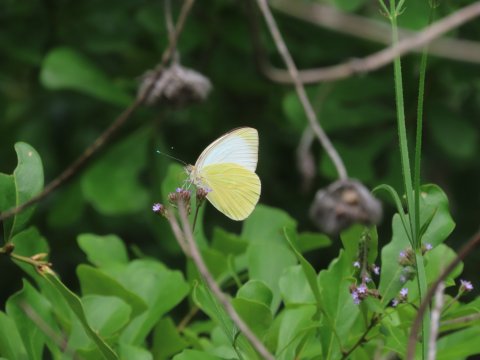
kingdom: Animalia
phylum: Arthropoda
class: Insecta
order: Lepidoptera
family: Pieridae
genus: Ascia
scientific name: Ascia monuste
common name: Great Southern White
